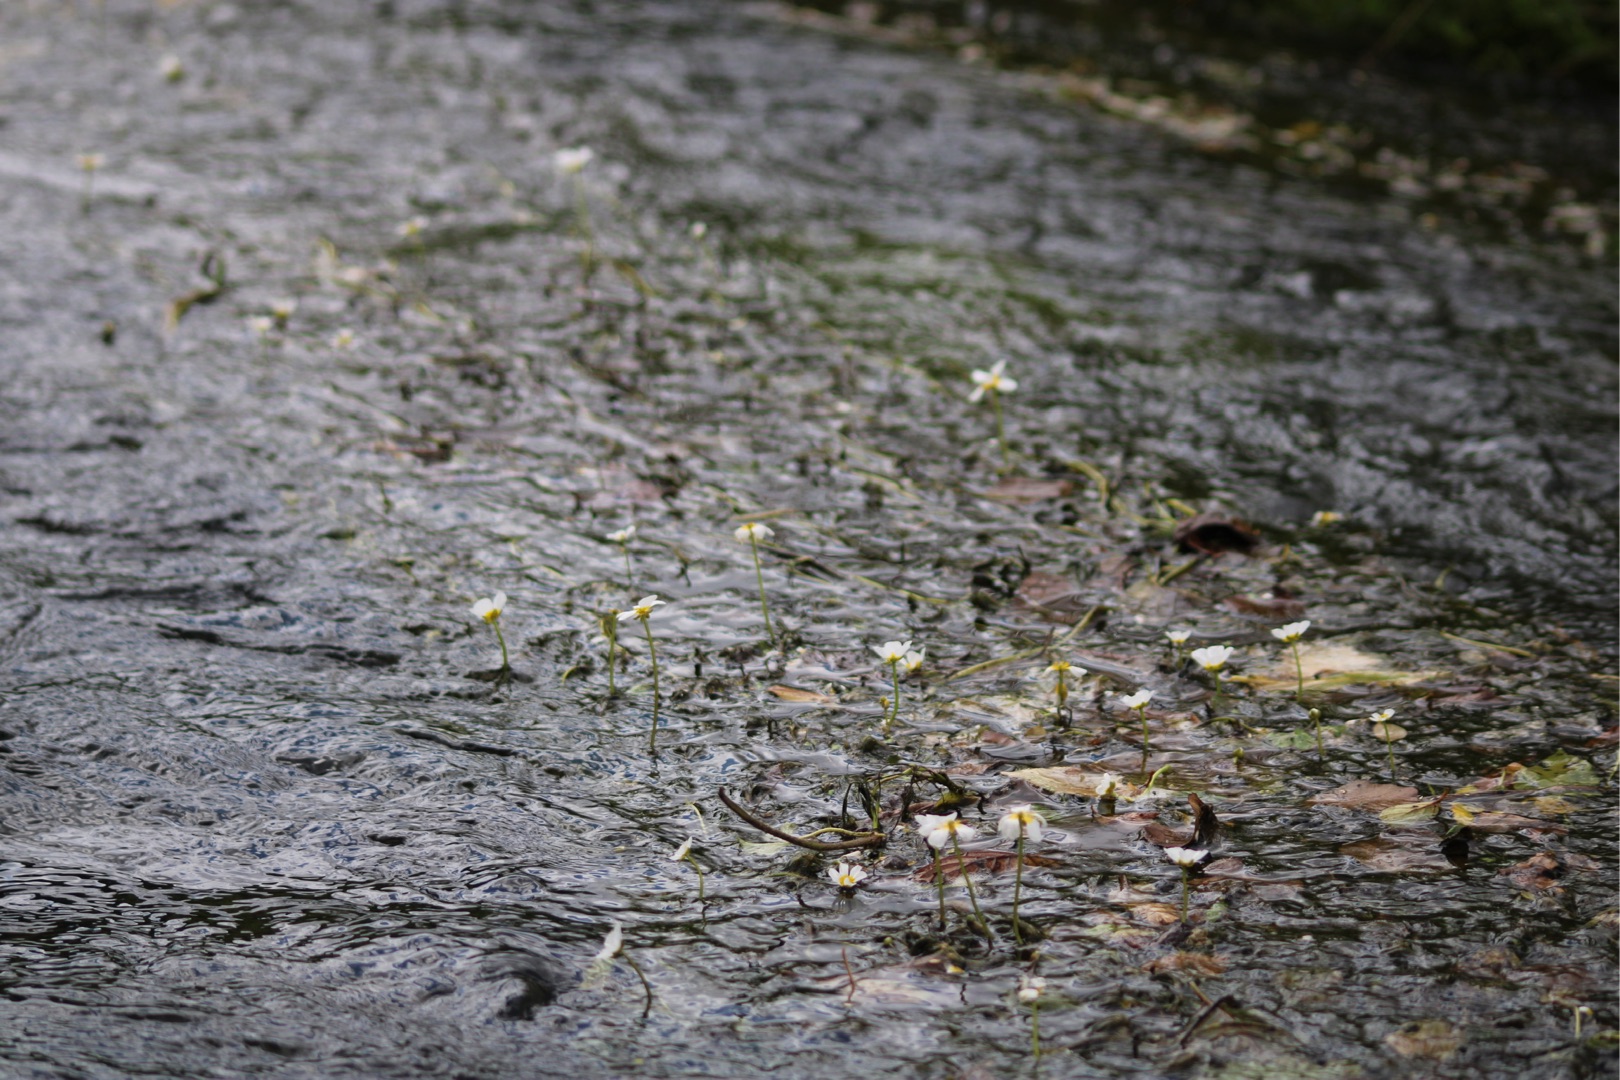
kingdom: Plantae
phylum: Tracheophyta
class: Magnoliopsida
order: Ranunculales
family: Ranunculaceae
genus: Ranunculus
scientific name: Ranunculus
